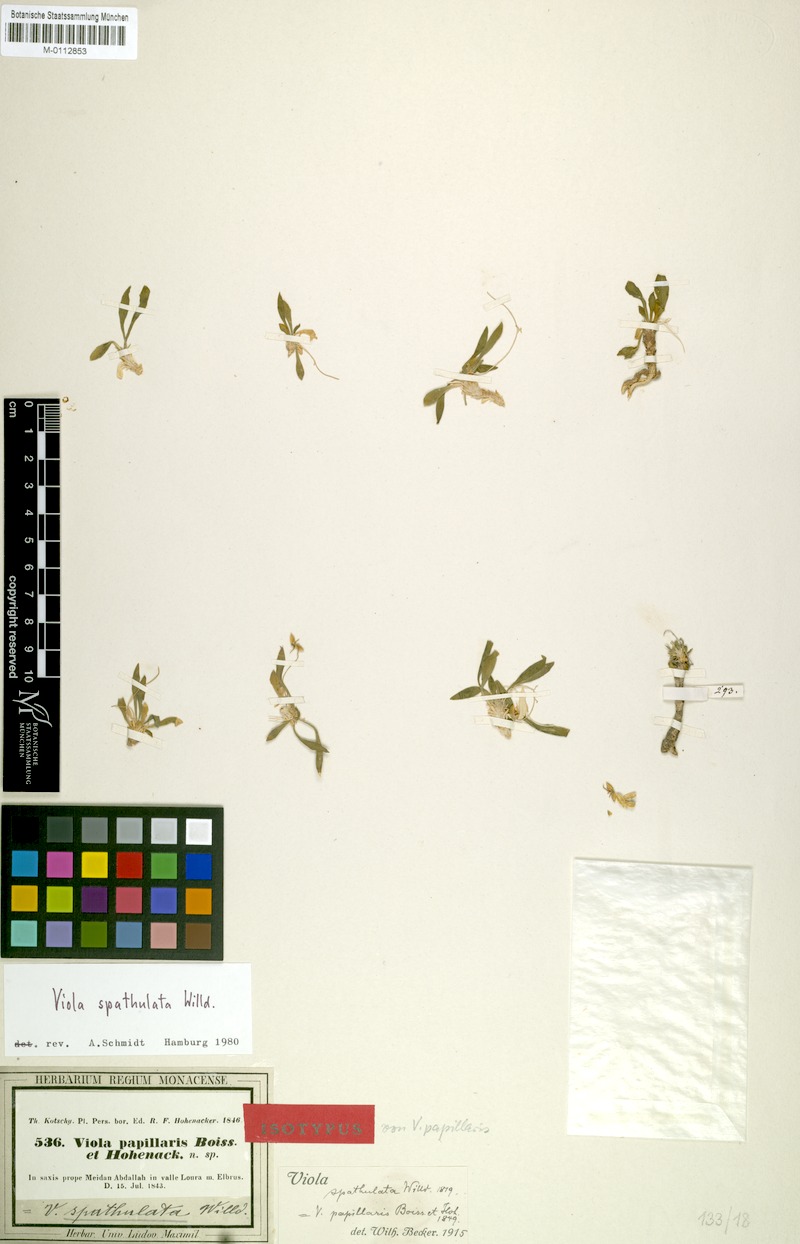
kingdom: Plantae
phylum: Tracheophyta
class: Magnoliopsida
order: Malpighiales
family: Violaceae
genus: Viola
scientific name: Viola spathulata
